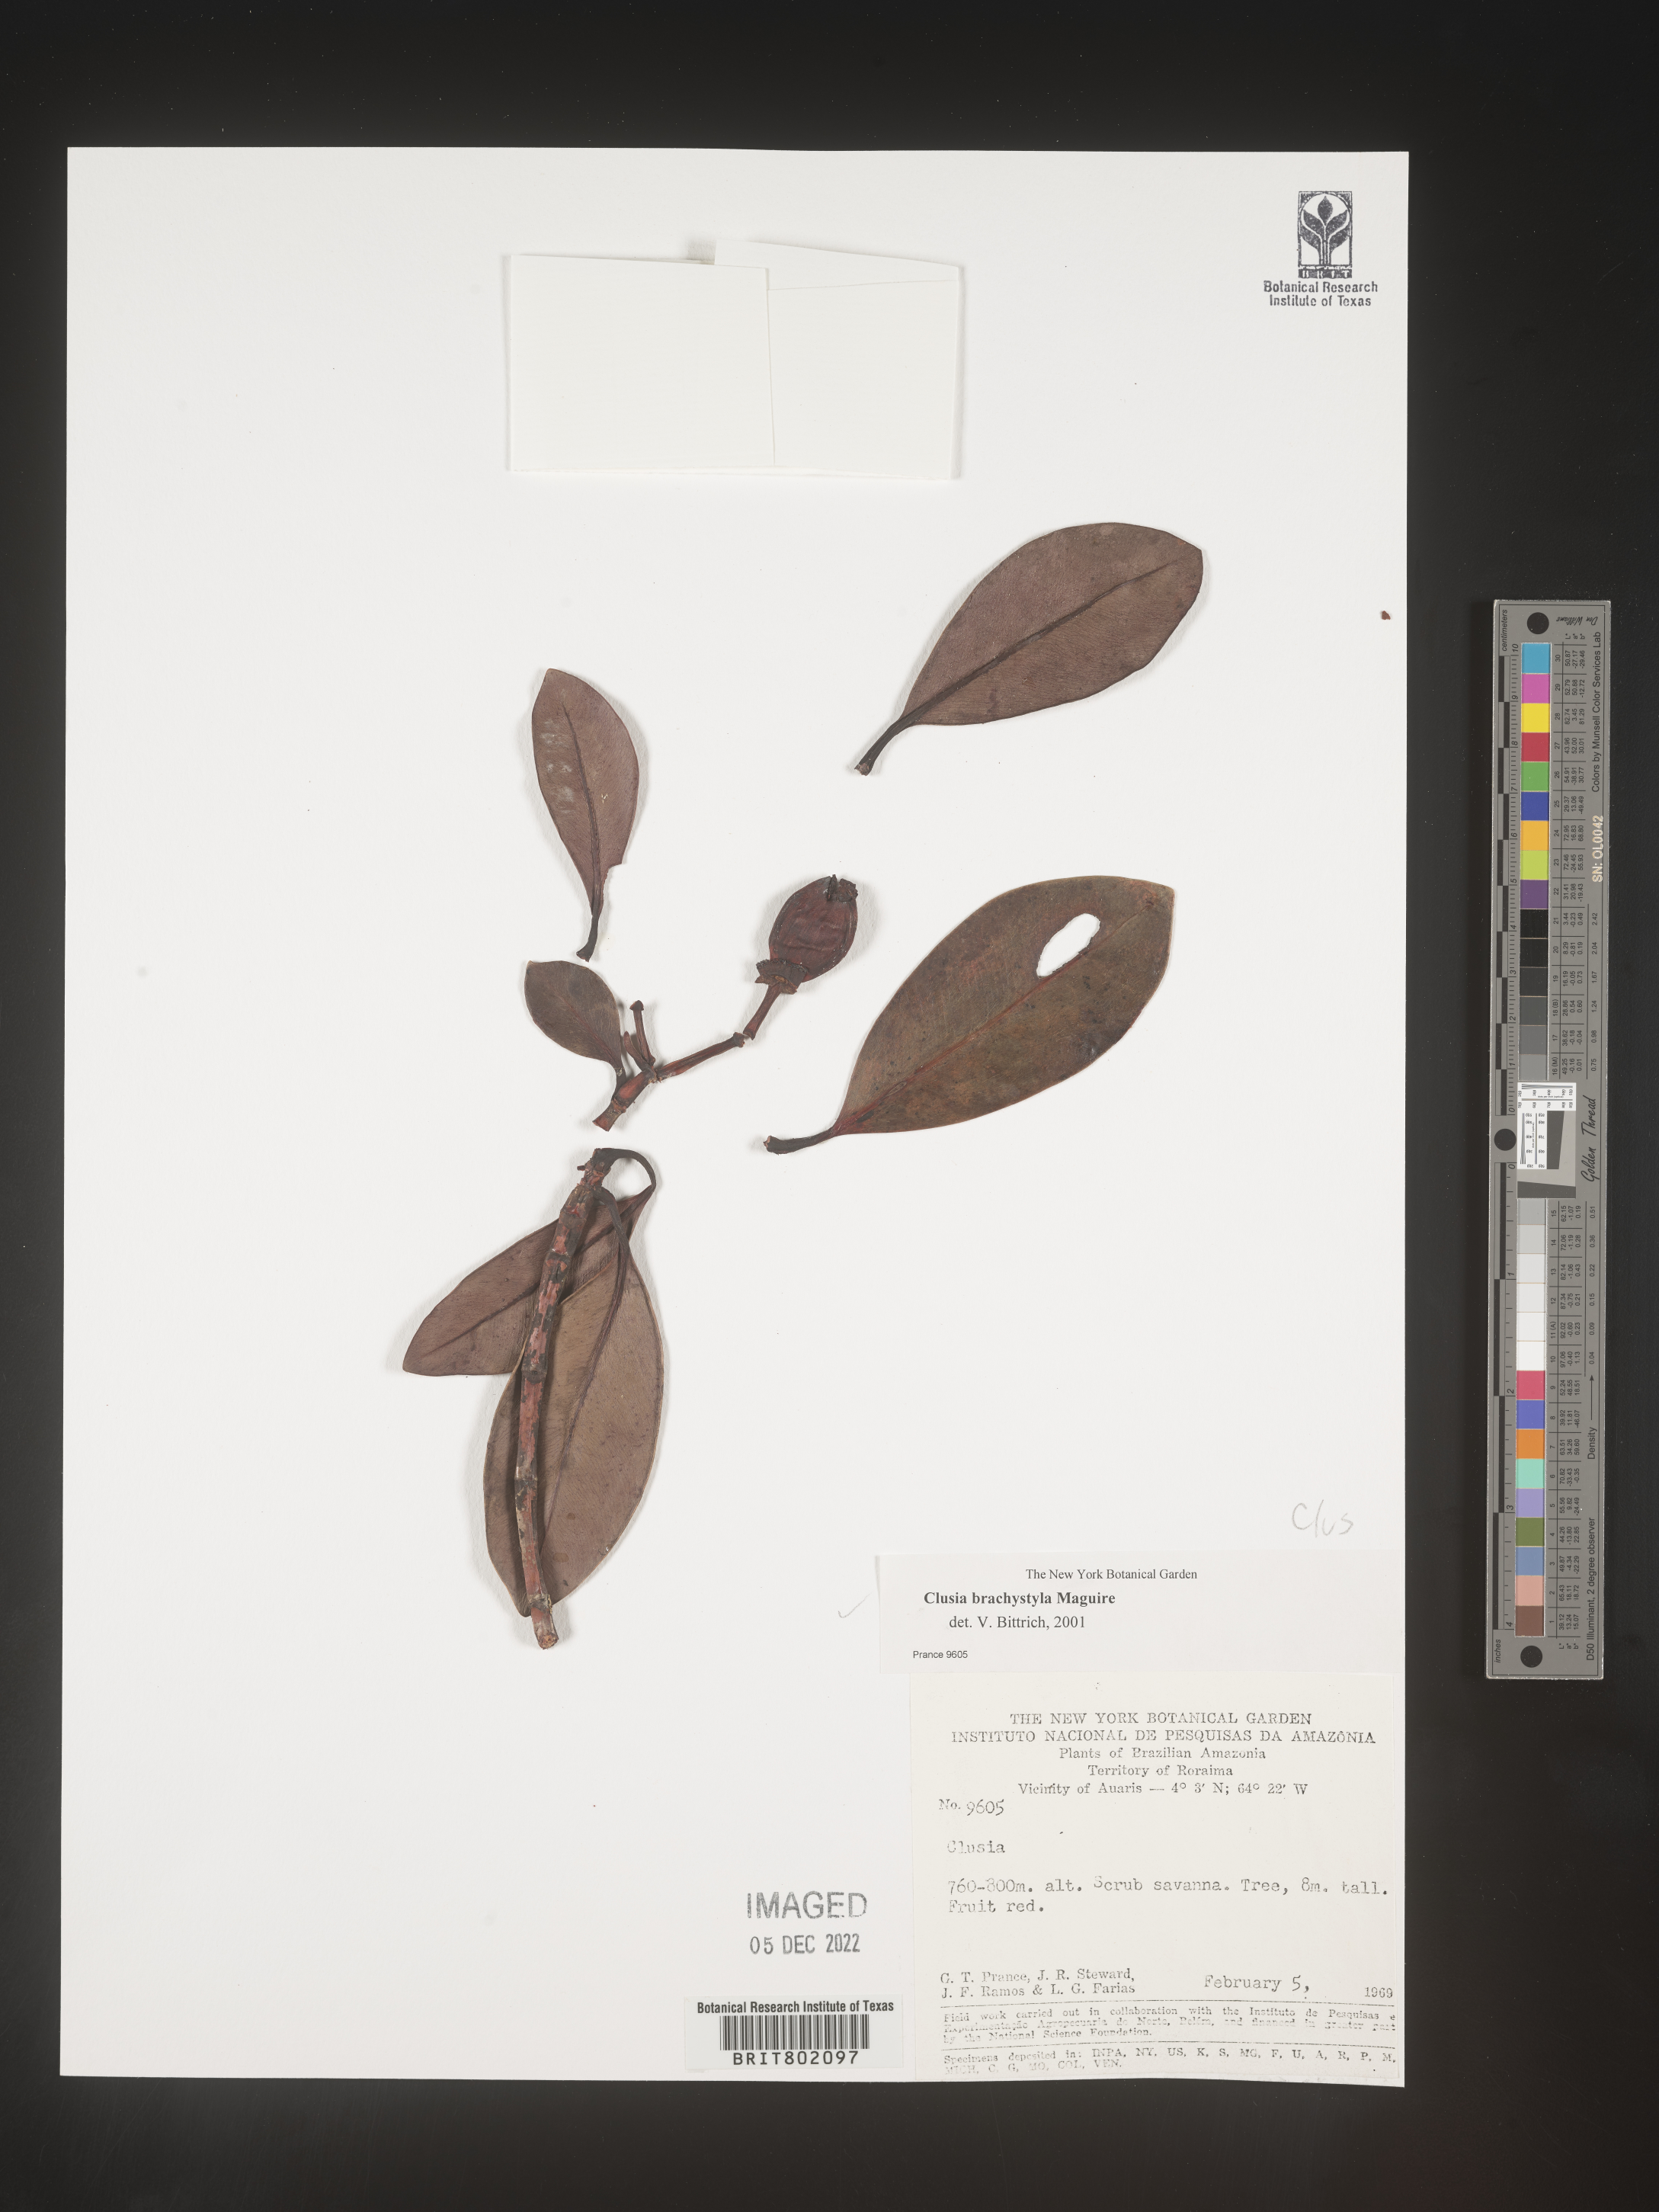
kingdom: Plantae
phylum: Tracheophyta
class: Magnoliopsida
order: Malpighiales
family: Clusiaceae
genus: Clusia
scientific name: Clusia brachystyla
